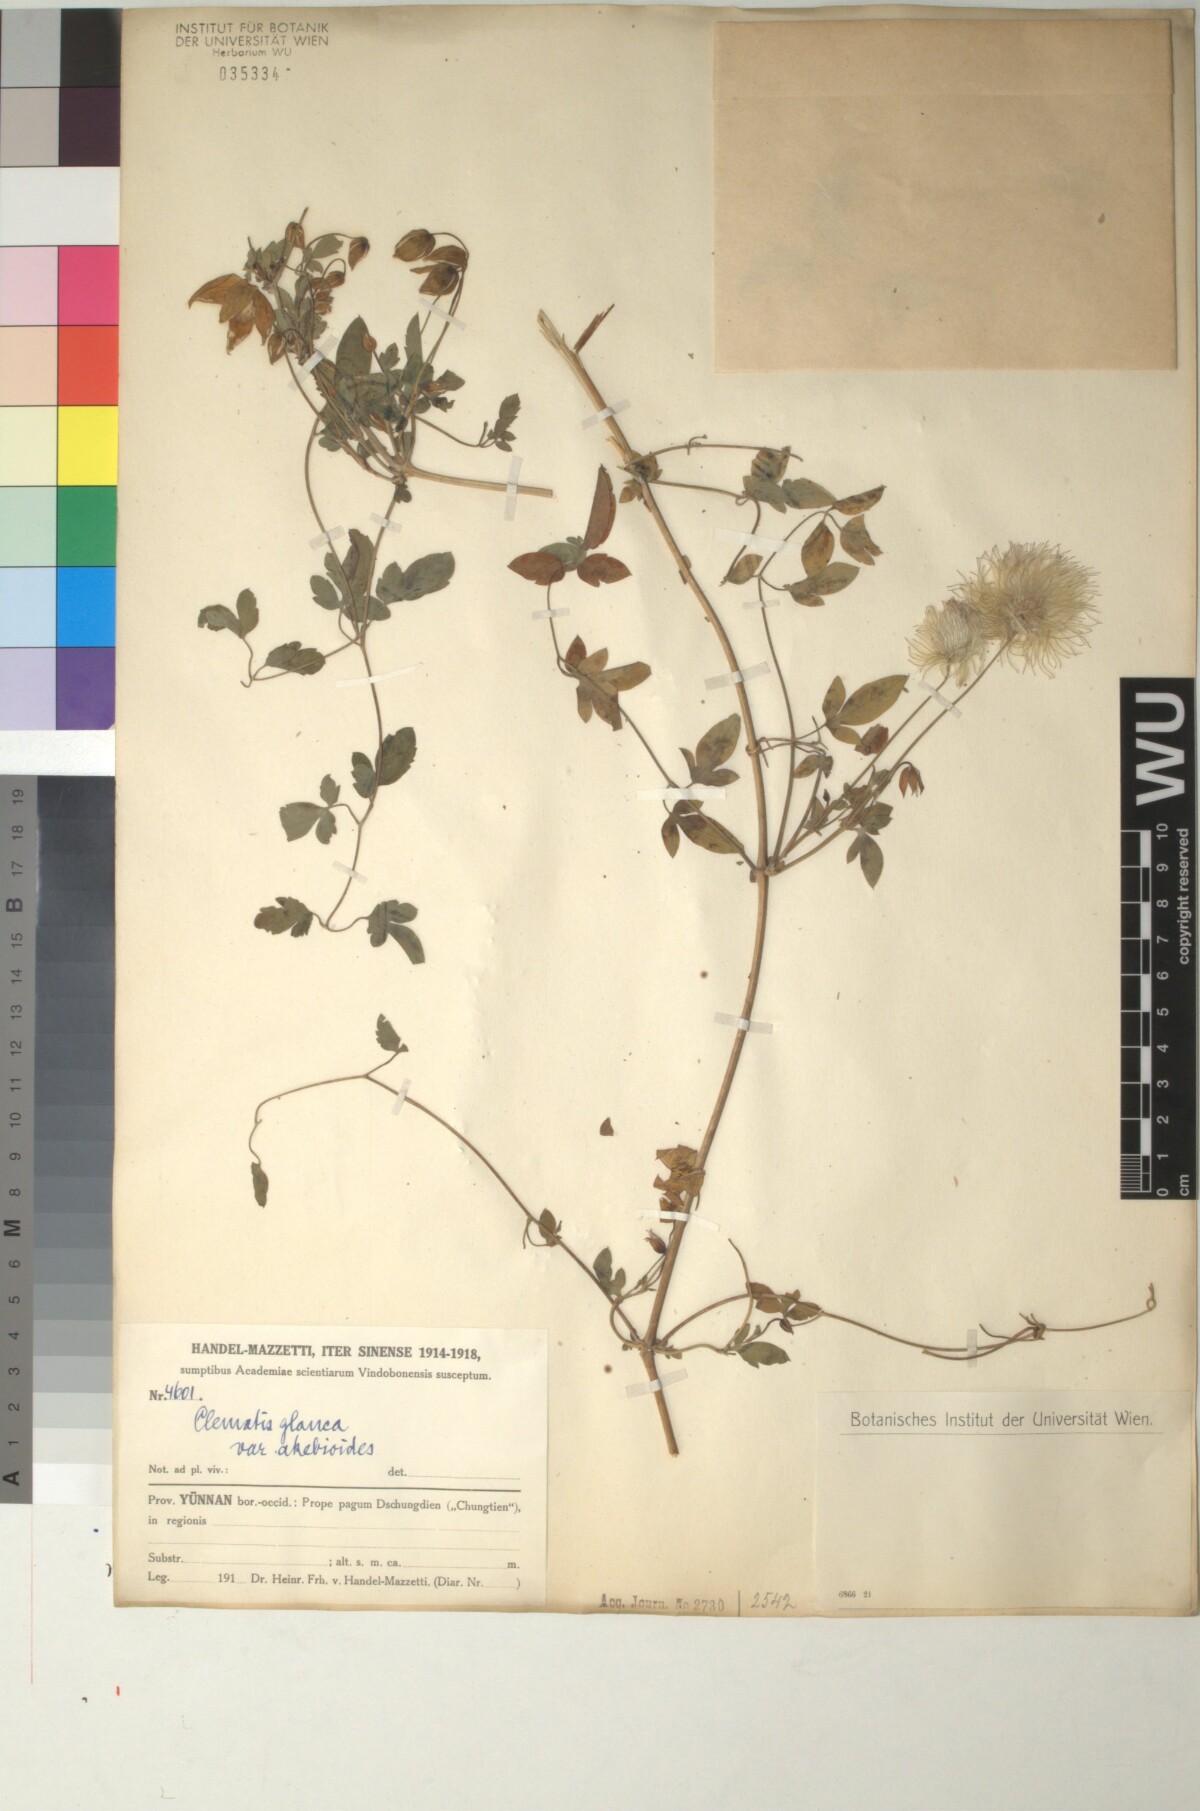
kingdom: Plantae
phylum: Tracheophyta
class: Magnoliopsida
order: Ranunculales
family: Ranunculaceae
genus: Clematis
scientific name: Clematis akebioides
